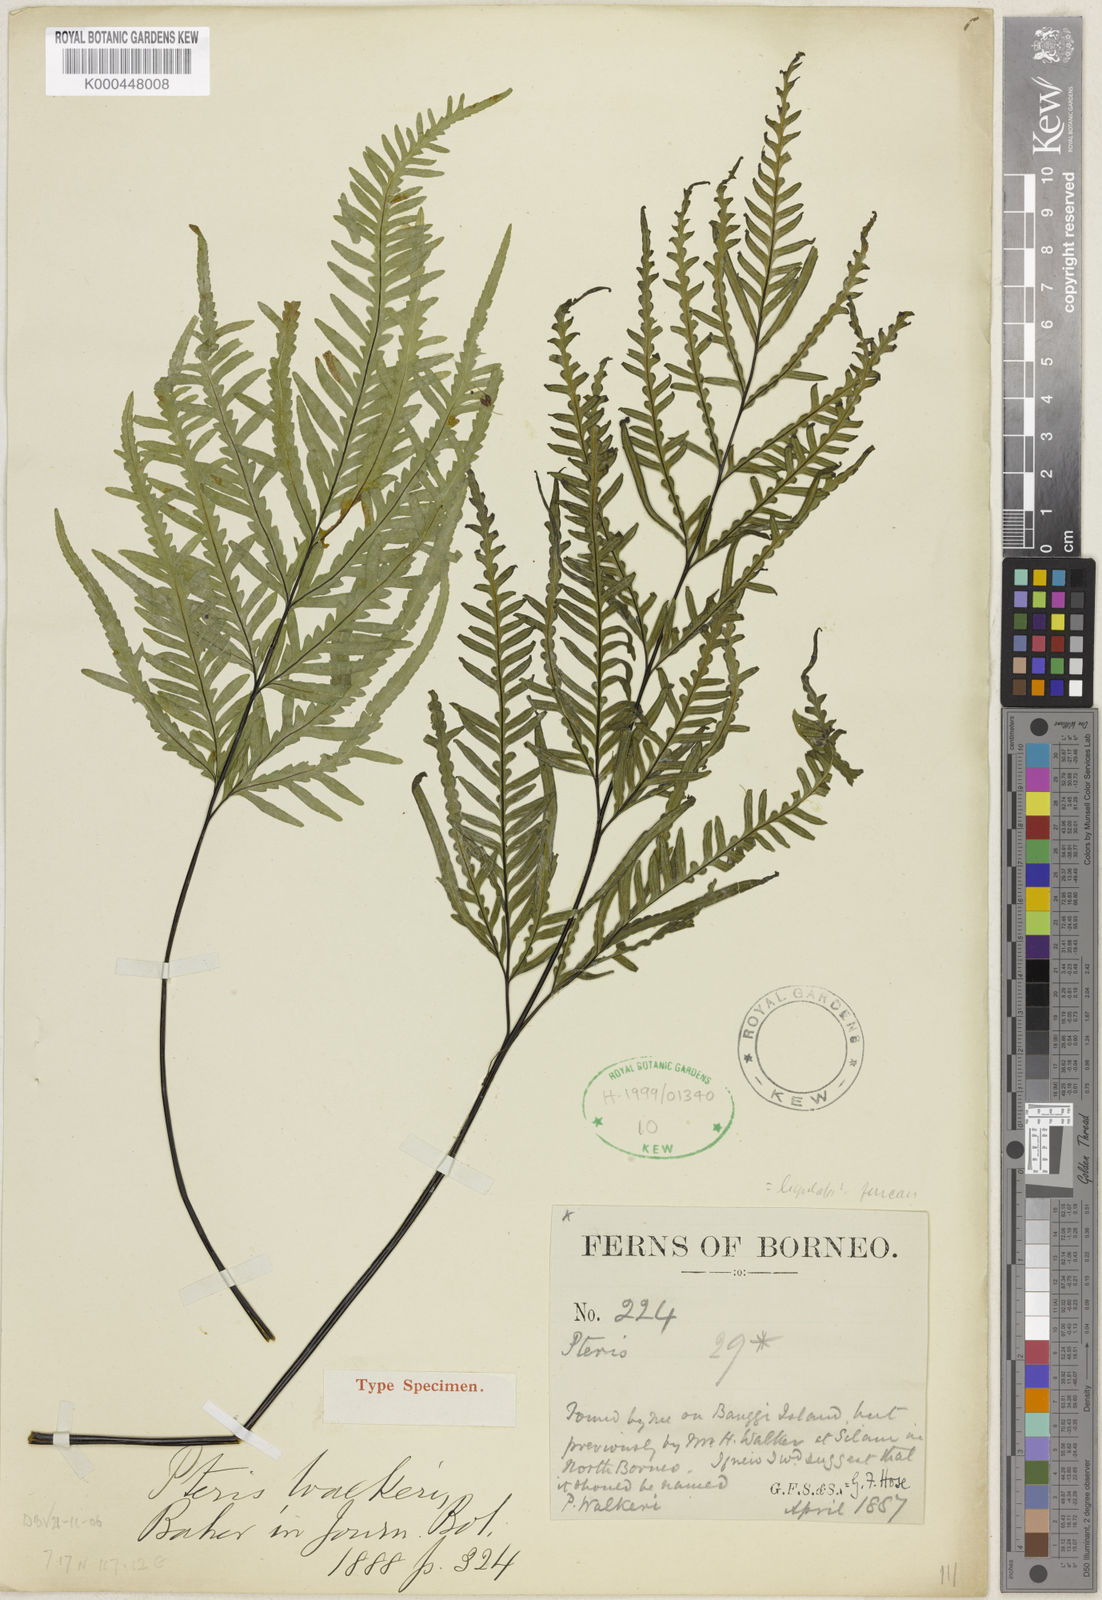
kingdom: Plantae
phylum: Tracheophyta
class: Polypodiopsida
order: Polypodiales
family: Pteridaceae
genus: Pteris
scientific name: Pteris ligulata
